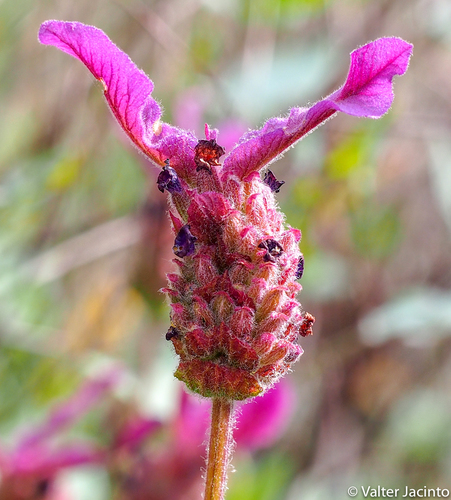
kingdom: Plantae
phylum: Tracheophyta
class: Magnoliopsida
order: Lamiales
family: Lamiaceae
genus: Lavandula
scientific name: Lavandula pedunculata
